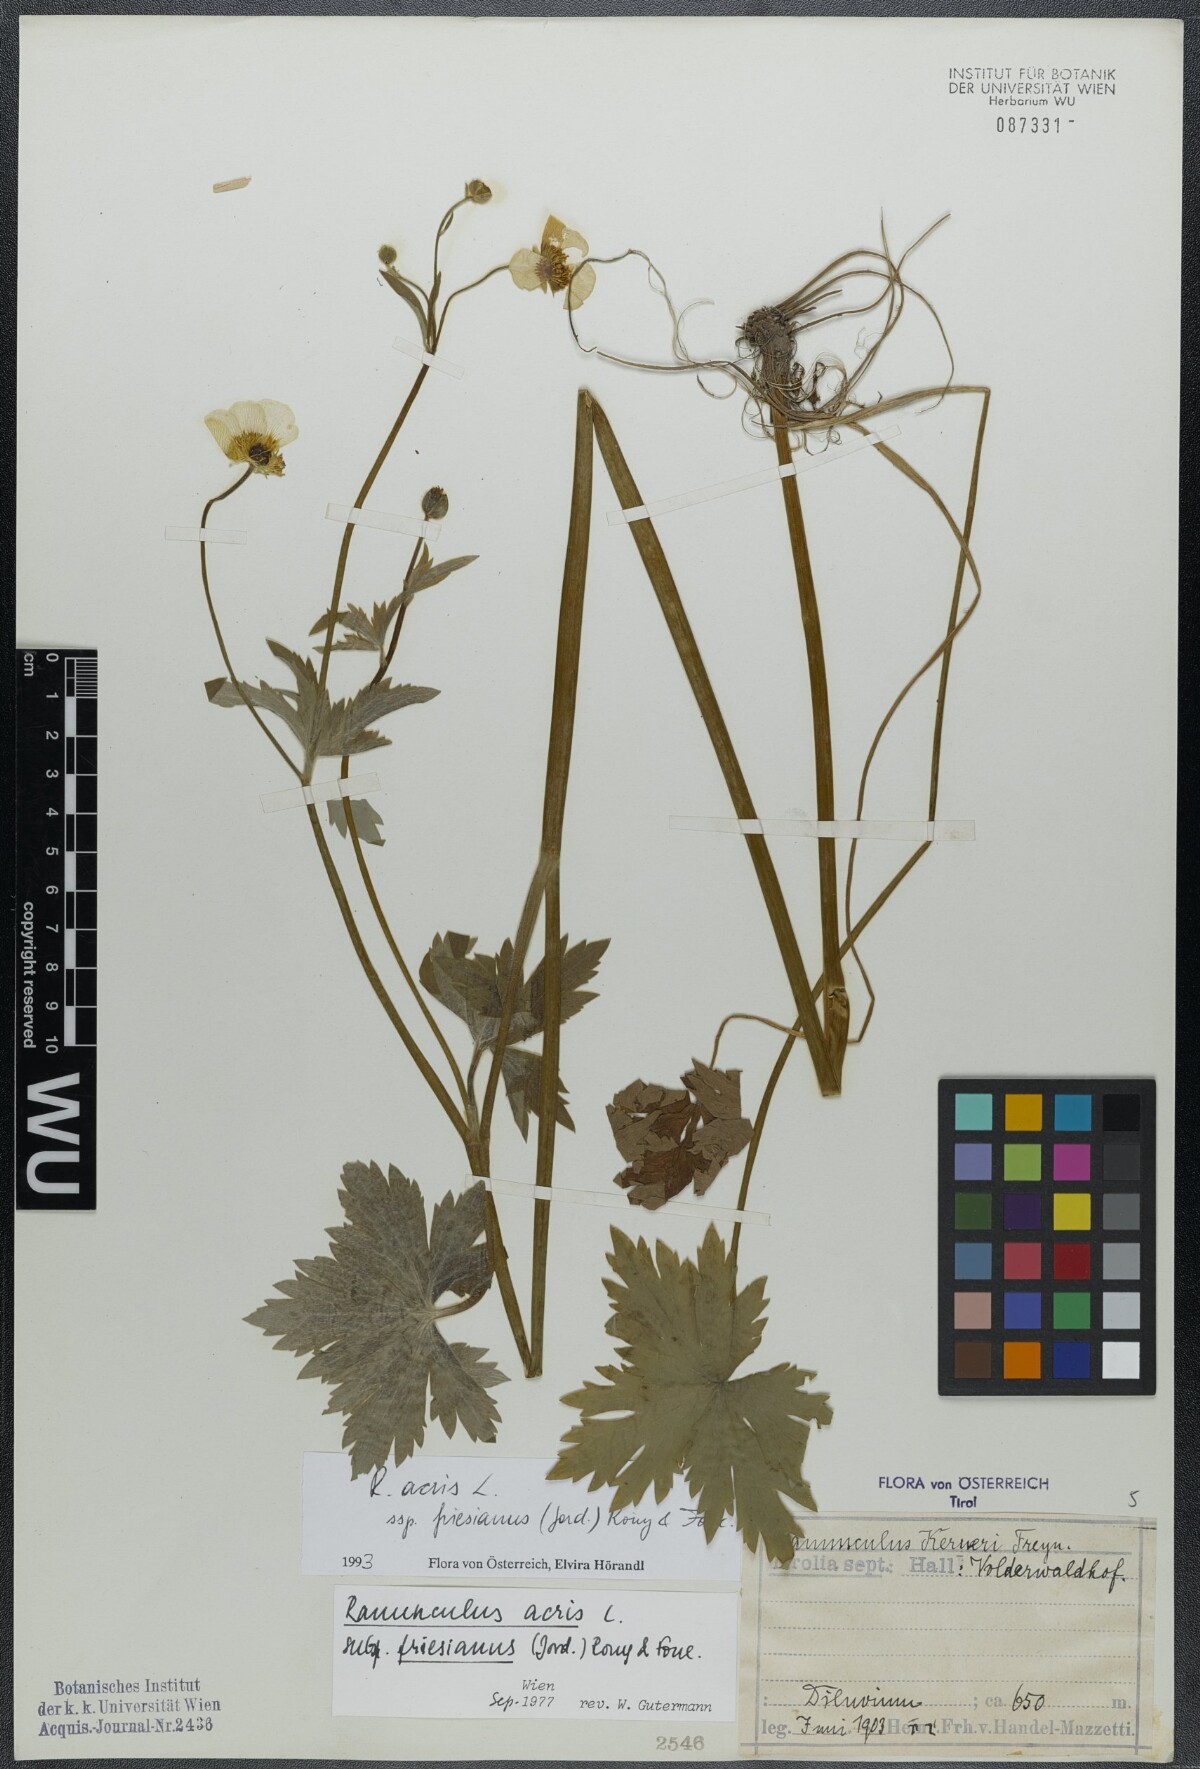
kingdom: Plantae
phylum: Tracheophyta
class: Magnoliopsida
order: Ranunculales
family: Ranunculaceae
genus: Ranunculus
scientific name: Ranunculus acris
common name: Meadow buttercup
